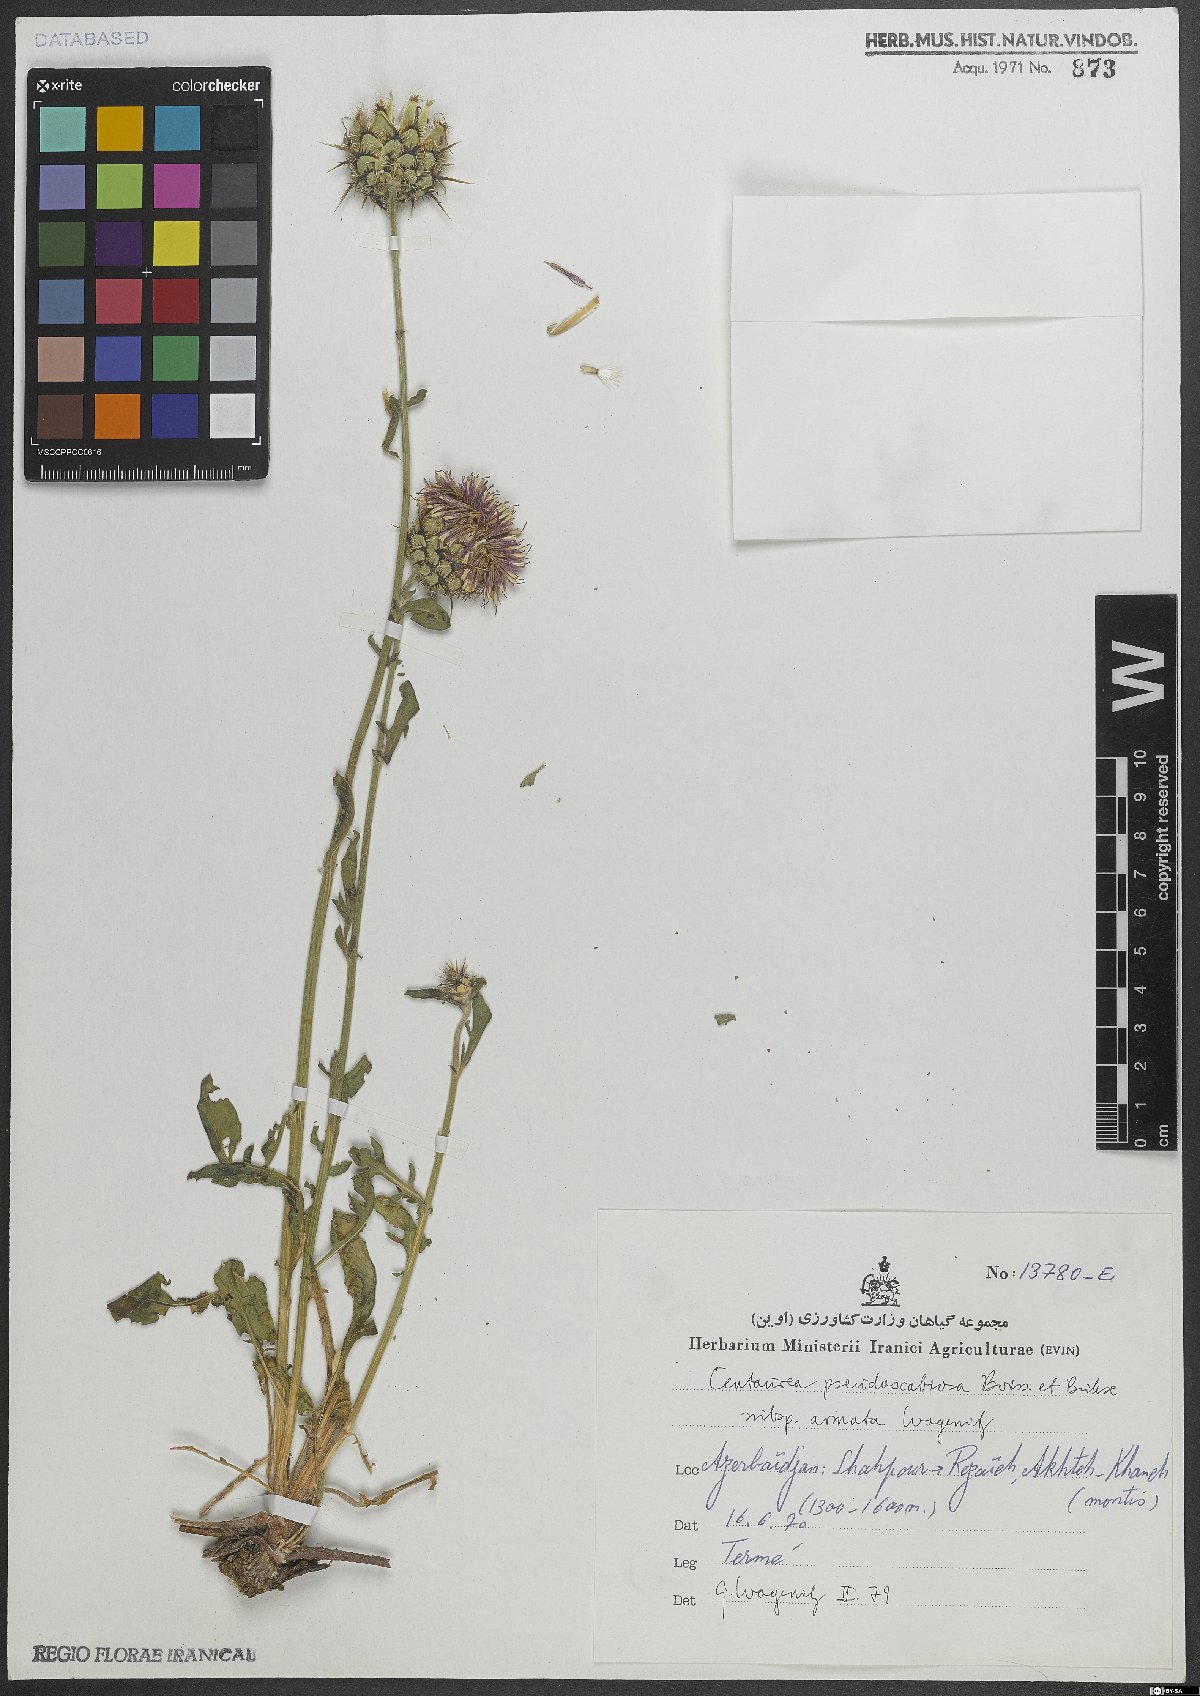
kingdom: Plantae
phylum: Tracheophyta
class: Magnoliopsida
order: Asterales
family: Asteraceae
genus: Centaurea
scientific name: Centaurea pseudoscabiosa
